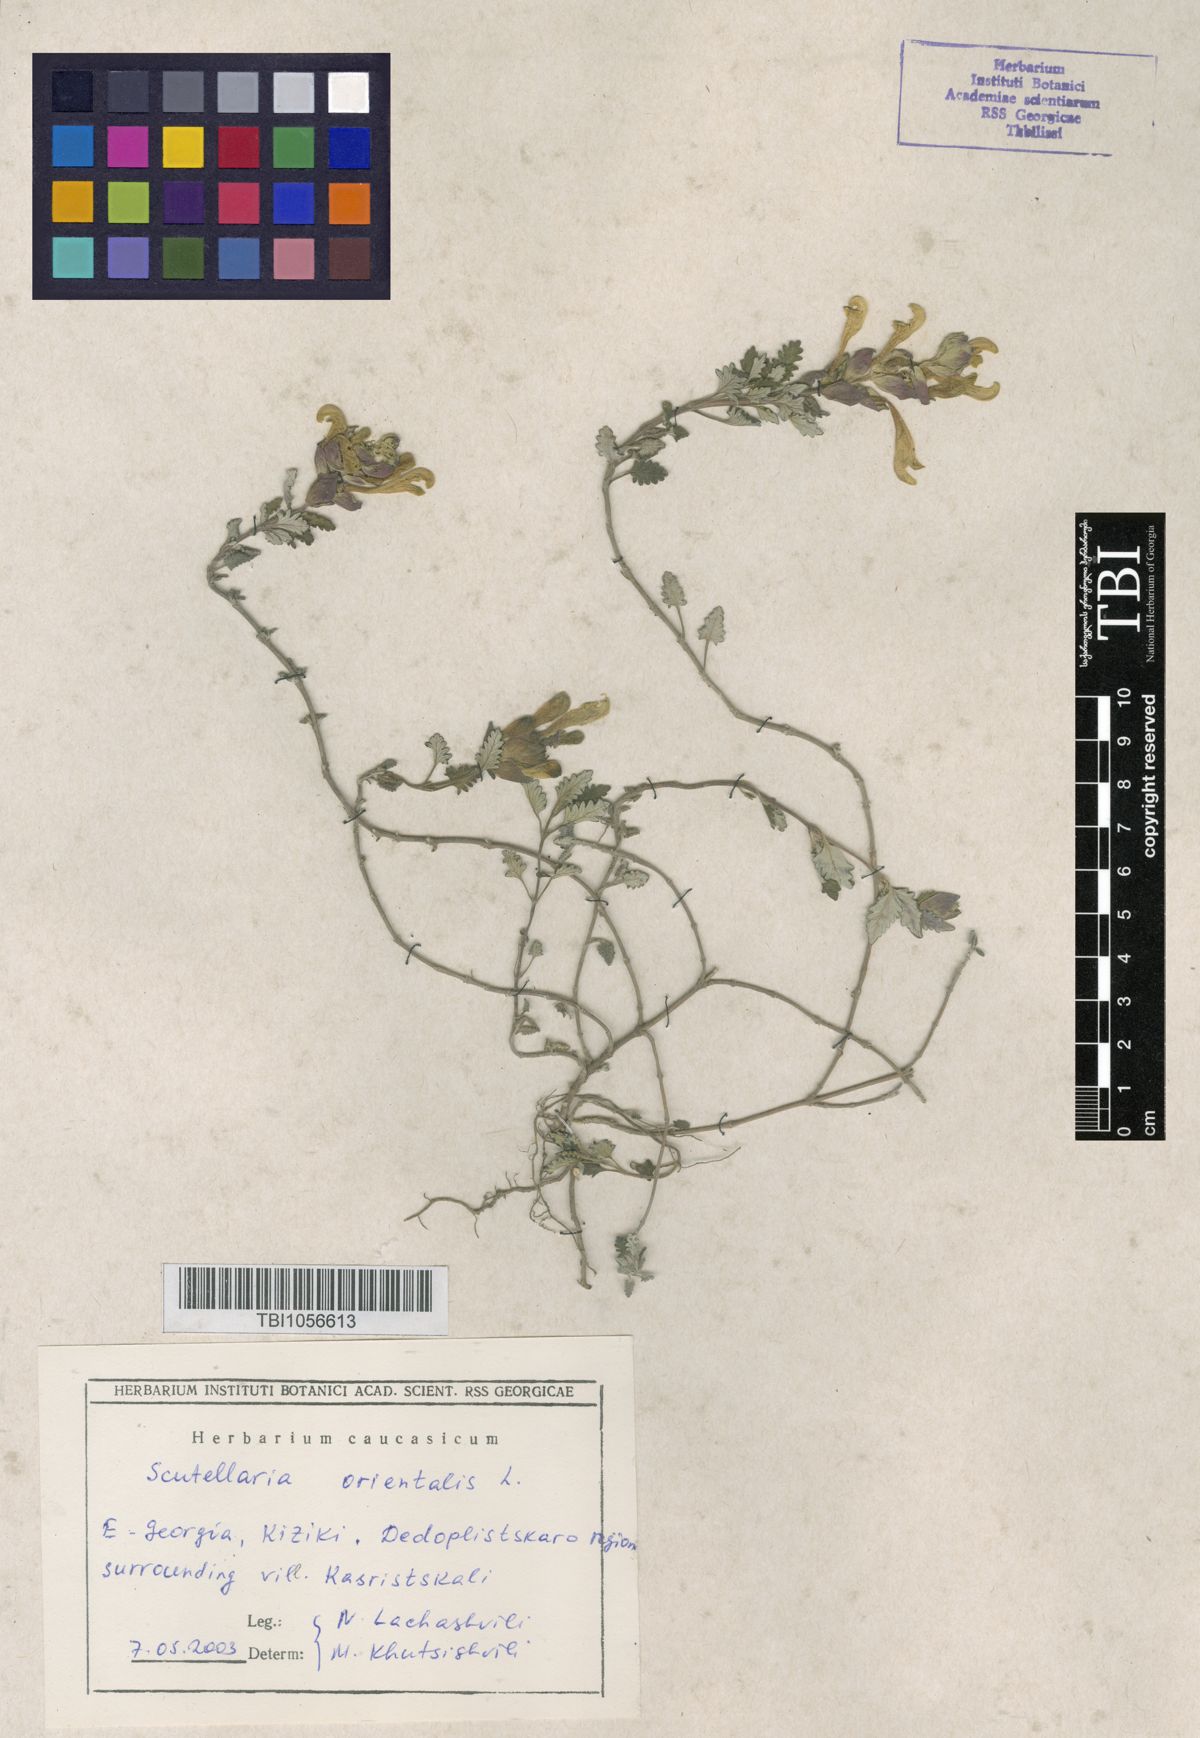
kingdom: Plantae
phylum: Tracheophyta
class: Magnoliopsida
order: Lamiales
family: Lamiaceae
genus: Scutellaria
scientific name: Scutellaria orientalis
